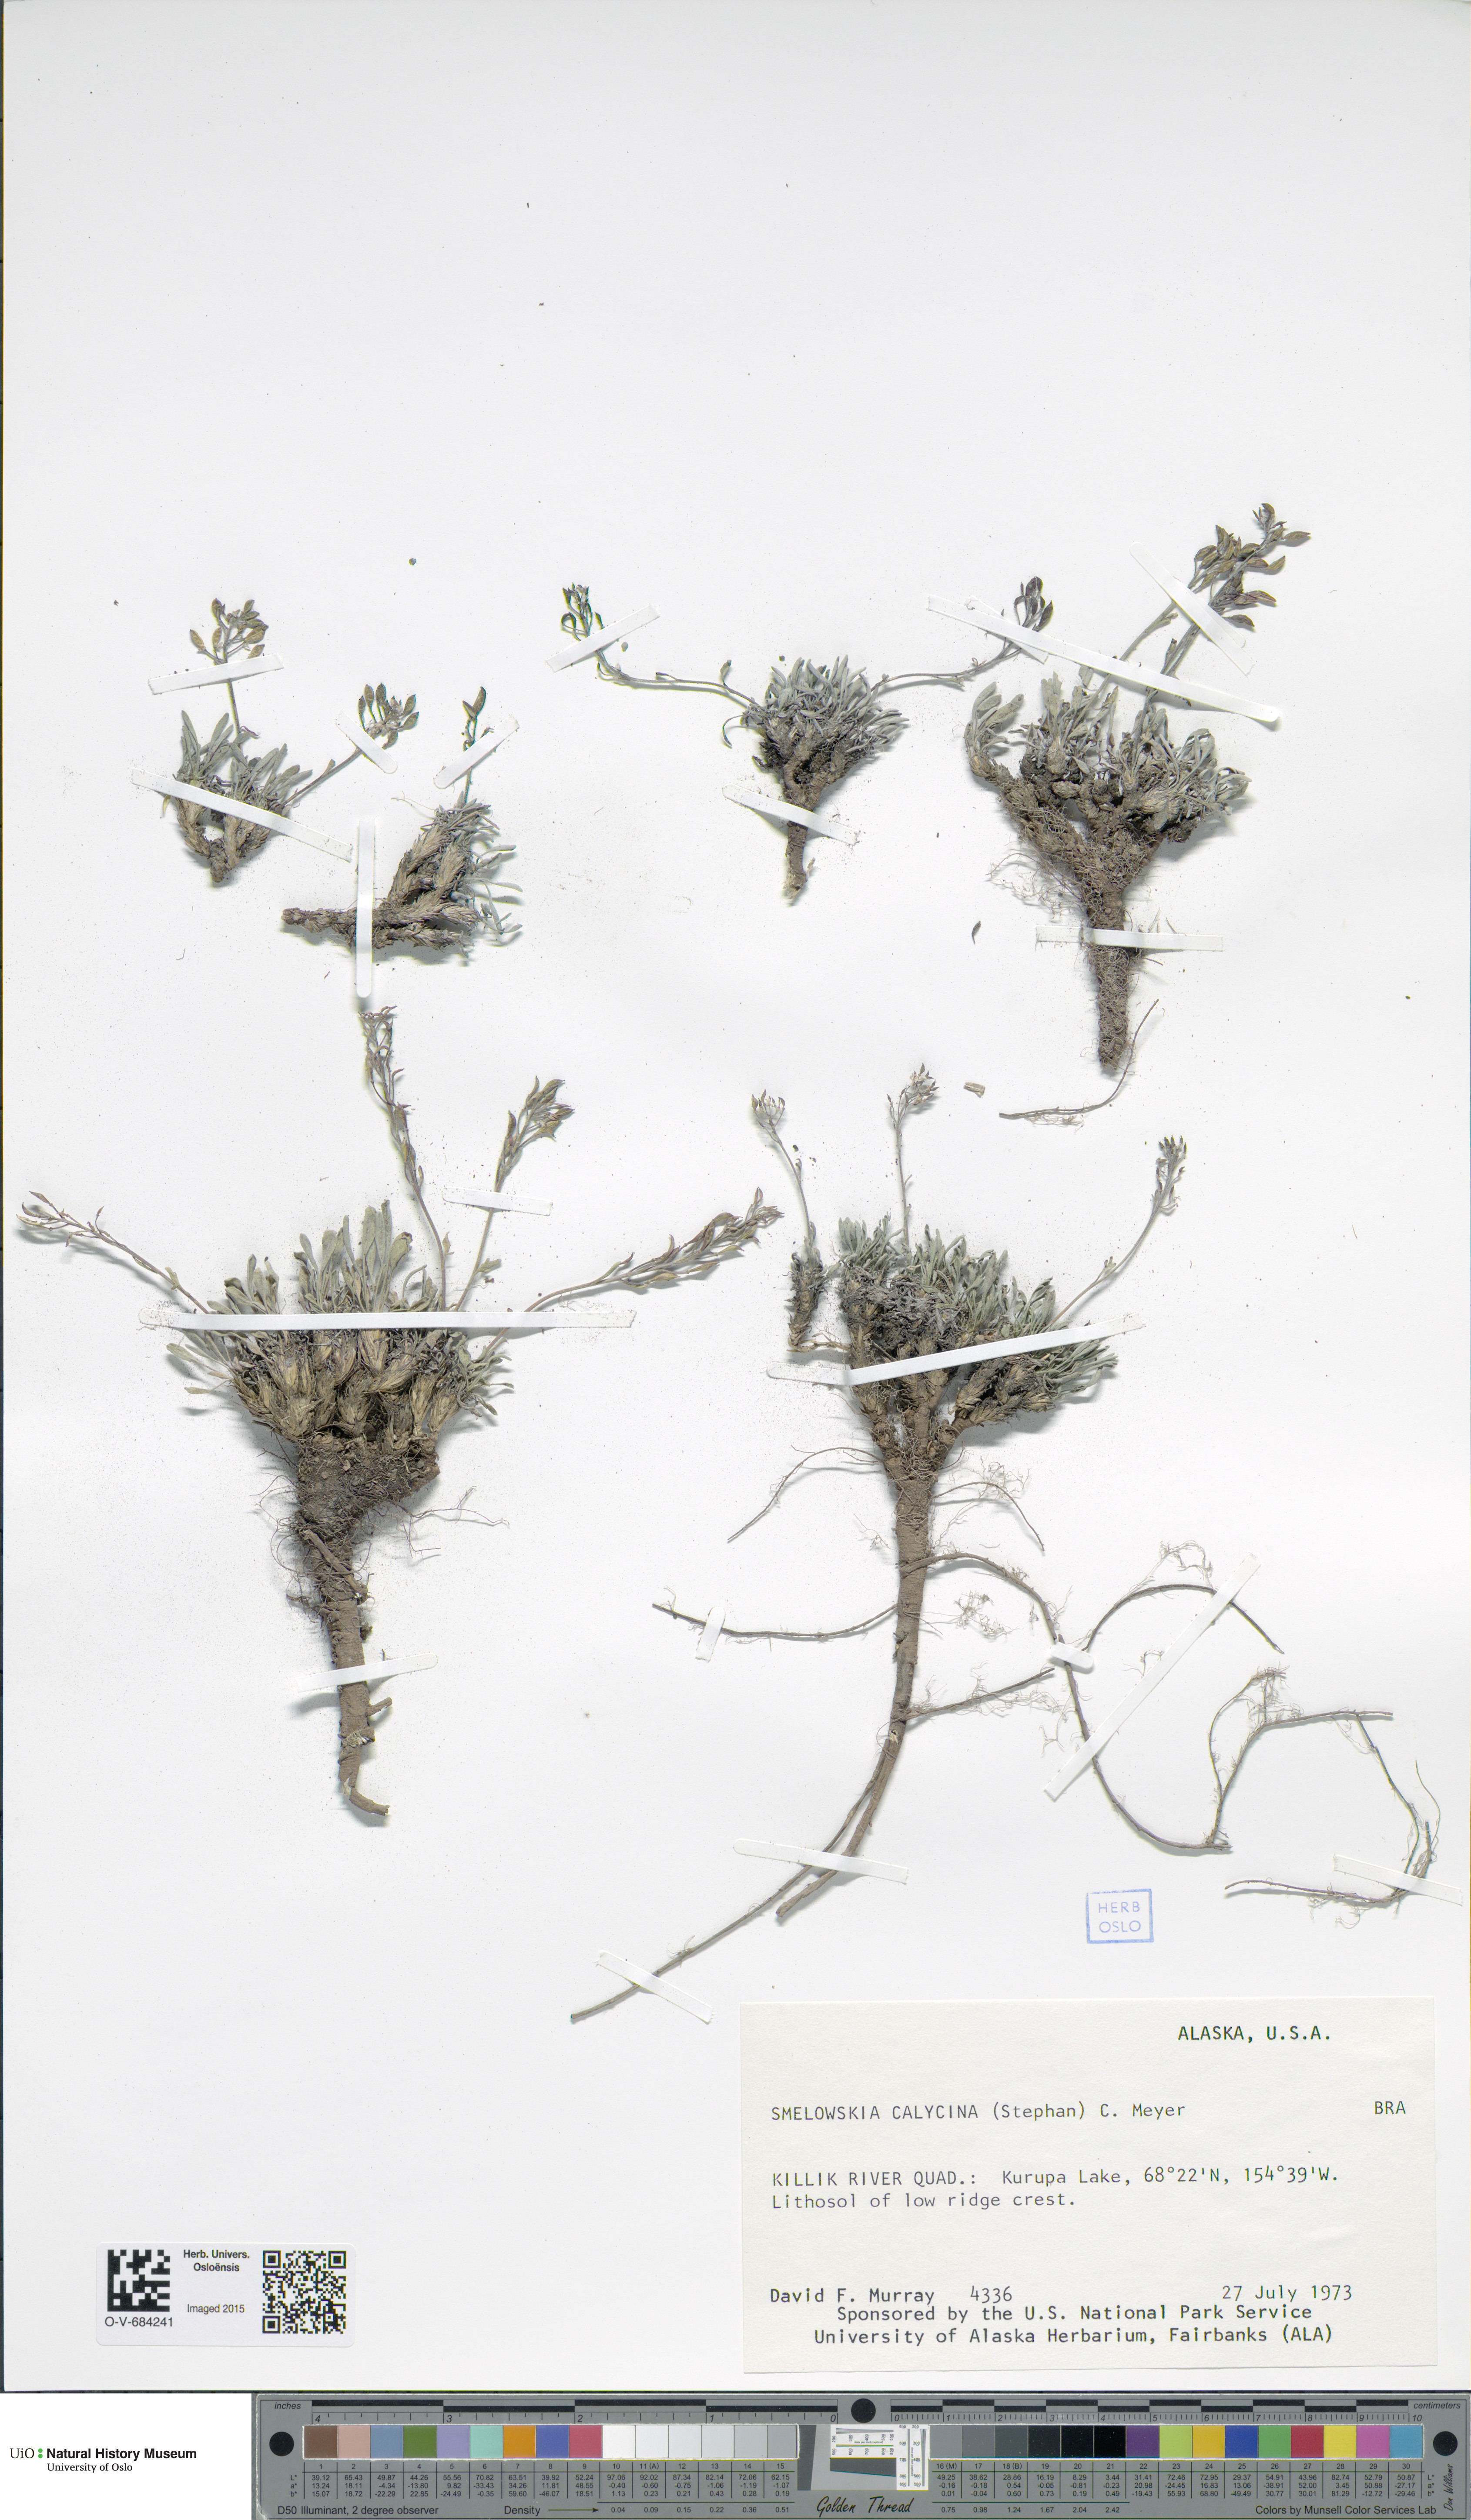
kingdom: Plantae
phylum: Tracheophyta
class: Magnoliopsida
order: Brassicales
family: Brassicaceae
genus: Smelowskia
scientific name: Smelowskia calycina
